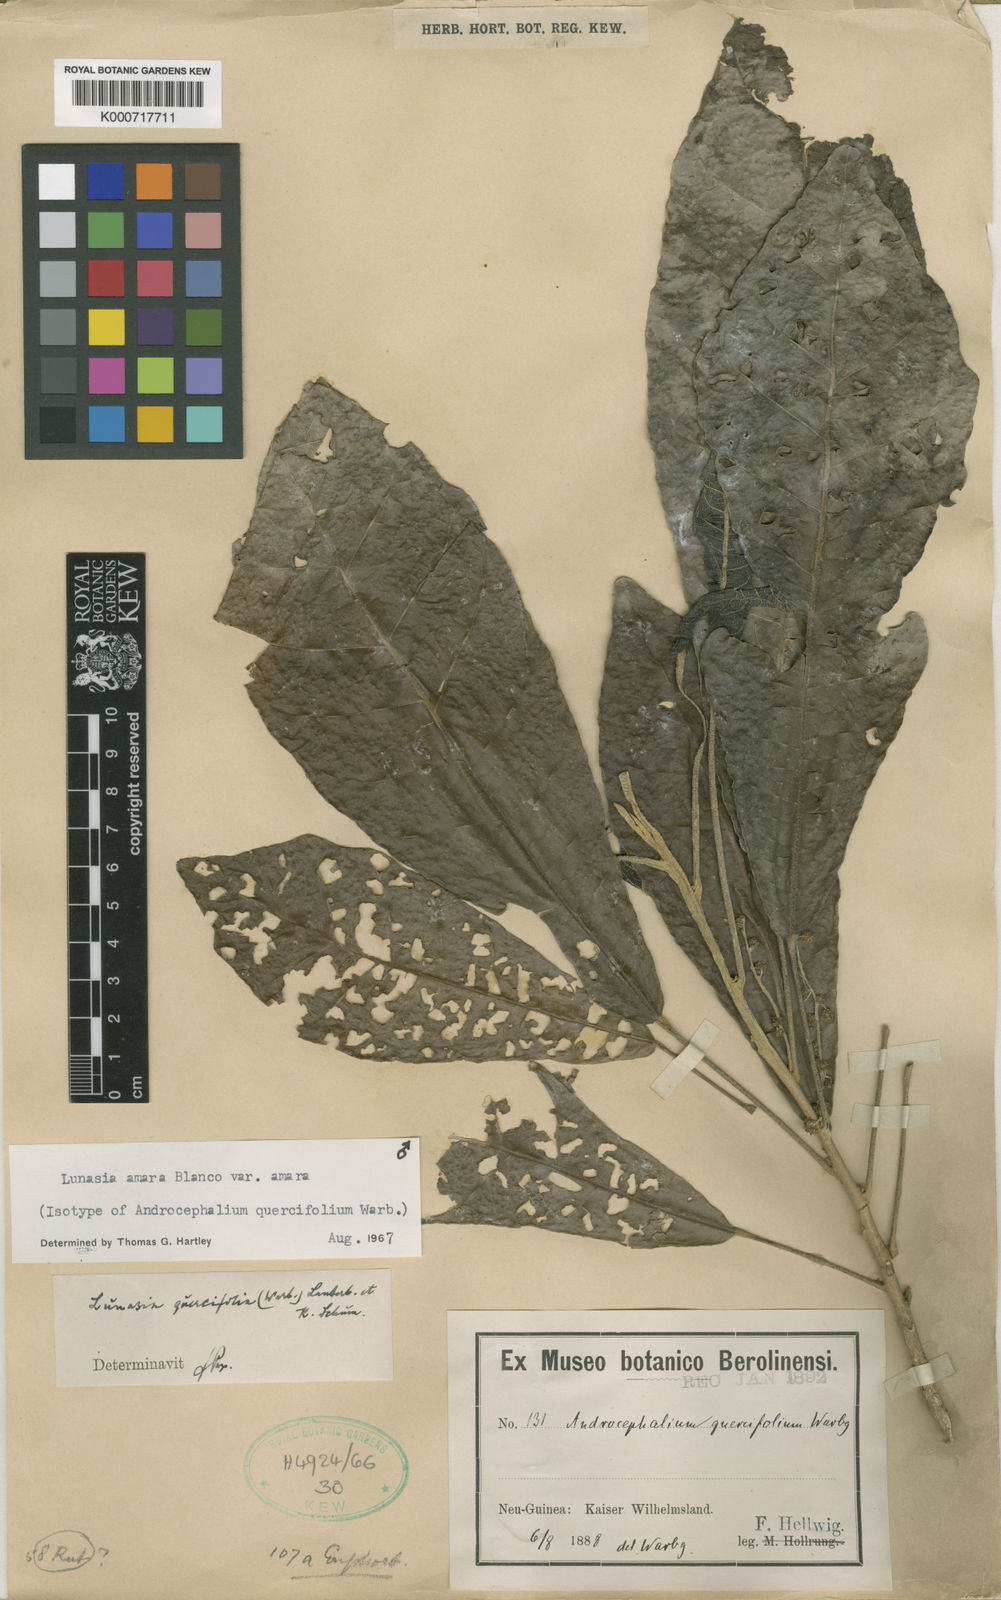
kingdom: Plantae
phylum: Tracheophyta
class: Magnoliopsida
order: Sapindales
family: Rutaceae
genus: Lunasia
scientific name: Lunasia amara
